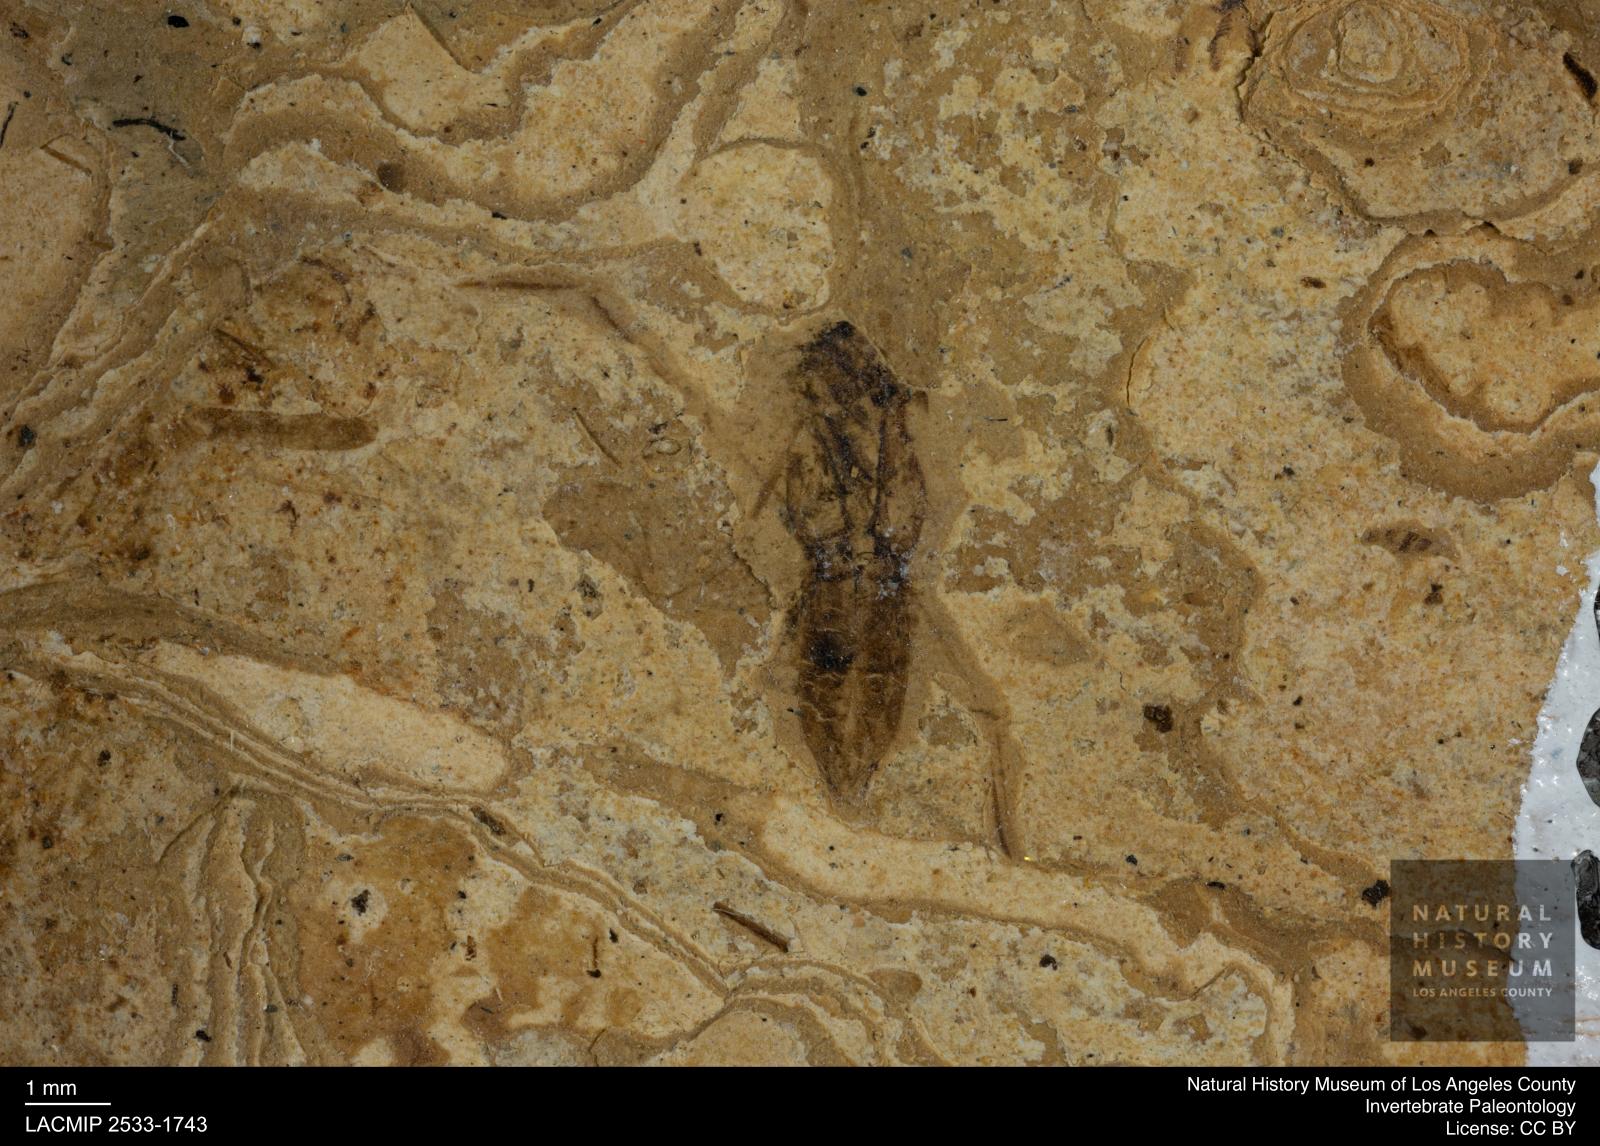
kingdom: Animalia
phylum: Arthropoda
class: Insecta
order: Hemiptera
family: Notonectidae
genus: Notonecta
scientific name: Notonecta
